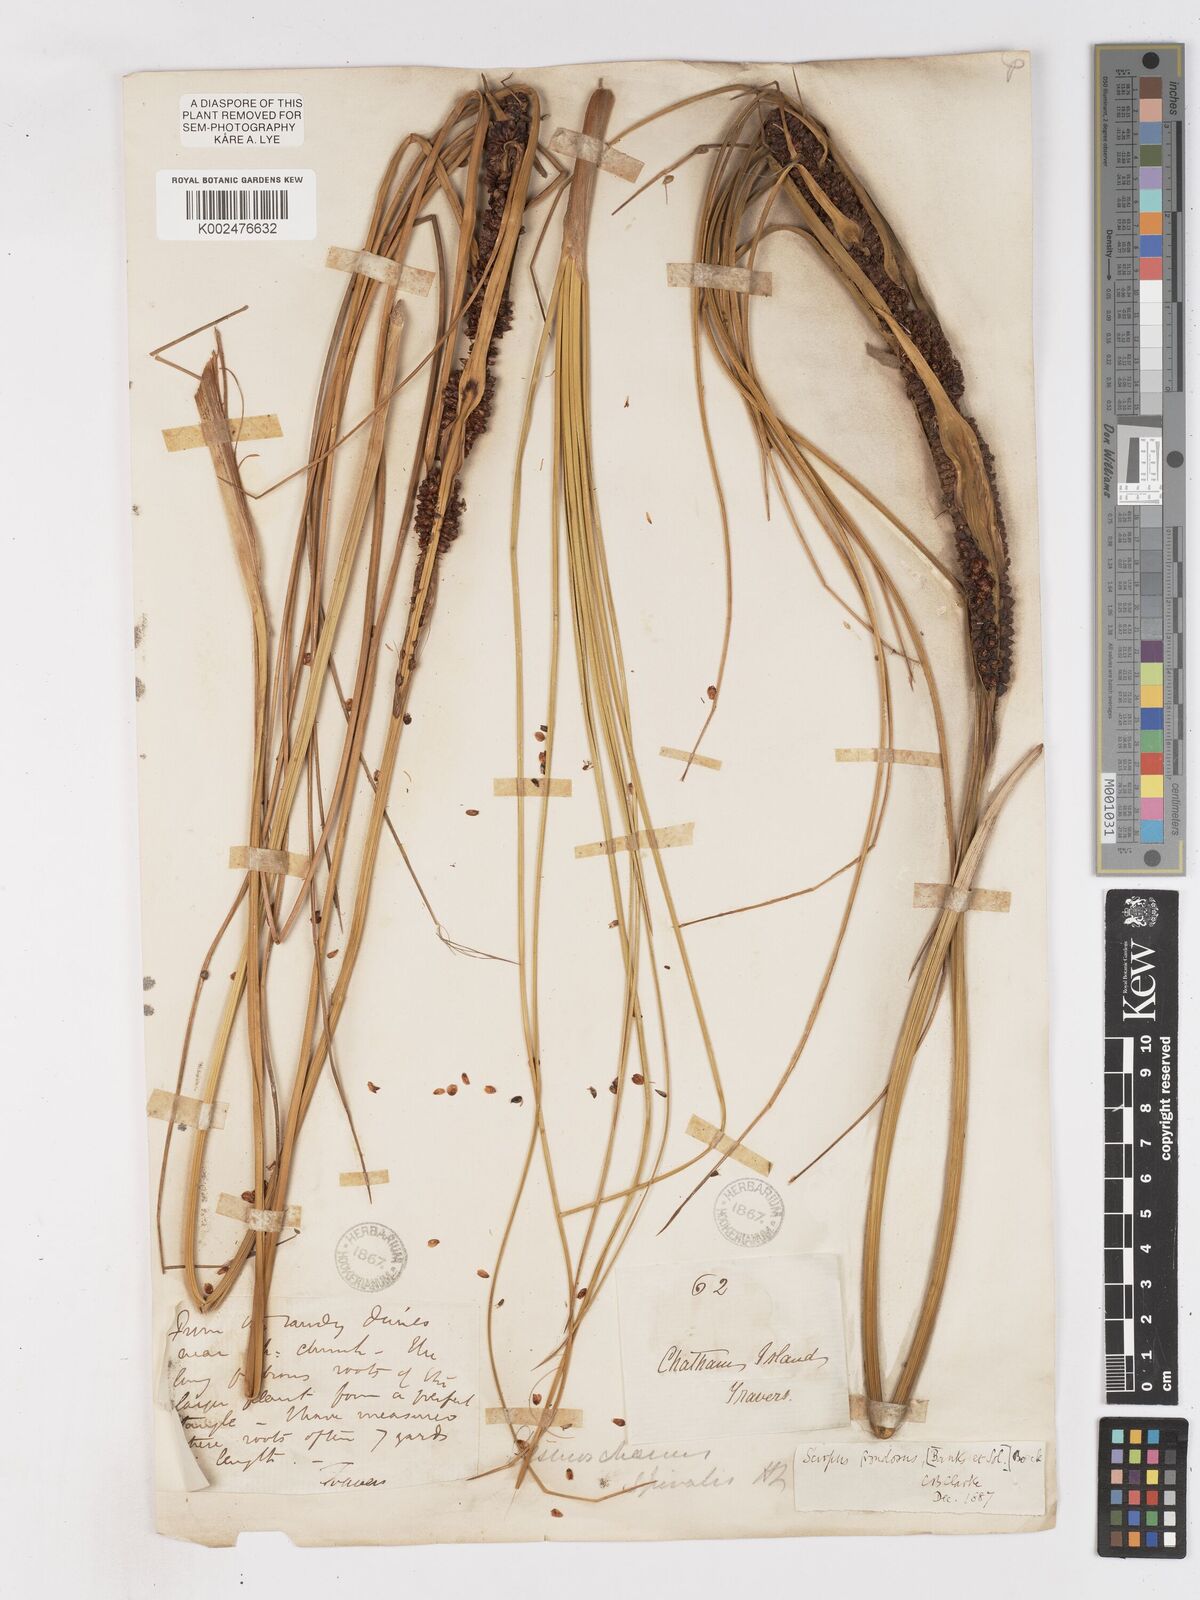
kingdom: Plantae
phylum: Tracheophyta
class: Liliopsida
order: Poales
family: Cyperaceae
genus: Ficinia
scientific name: Ficinia
